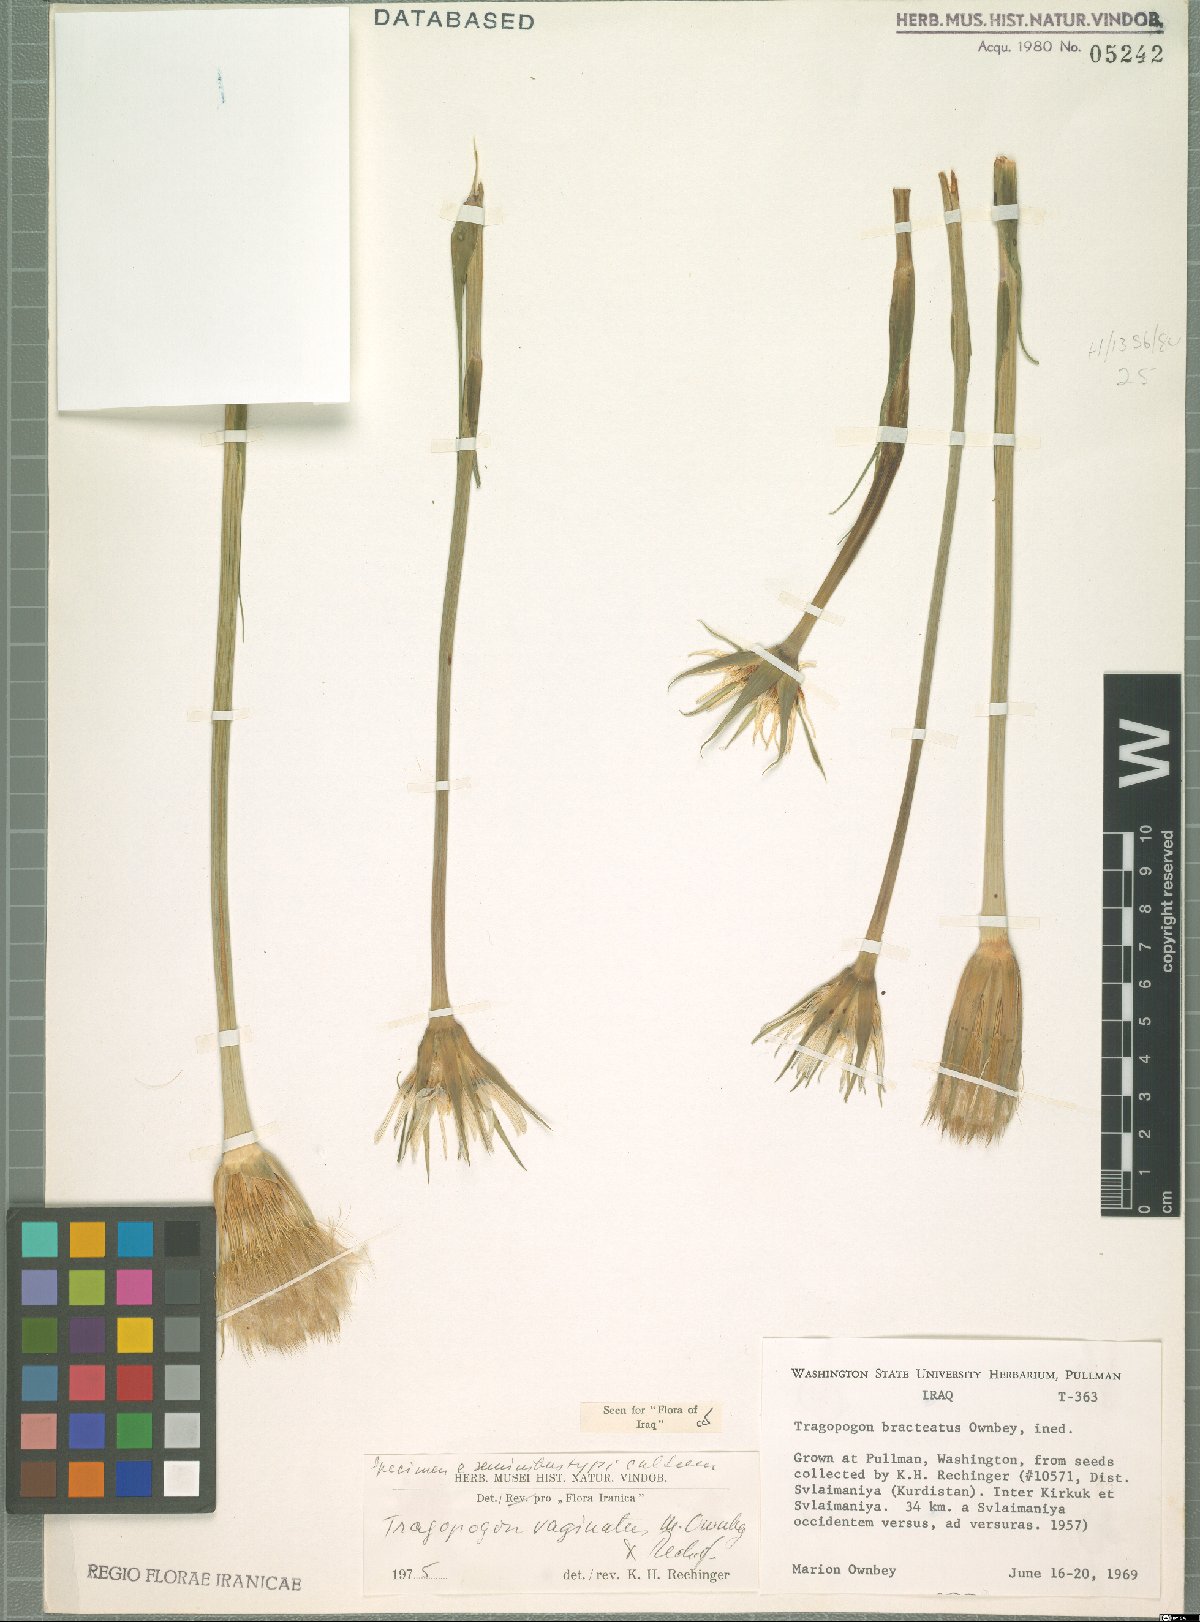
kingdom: Plantae
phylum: Tracheophyta
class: Magnoliopsida
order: Asterales
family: Asteraceae
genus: Tragopogon
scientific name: Tragopogon vaginatus
